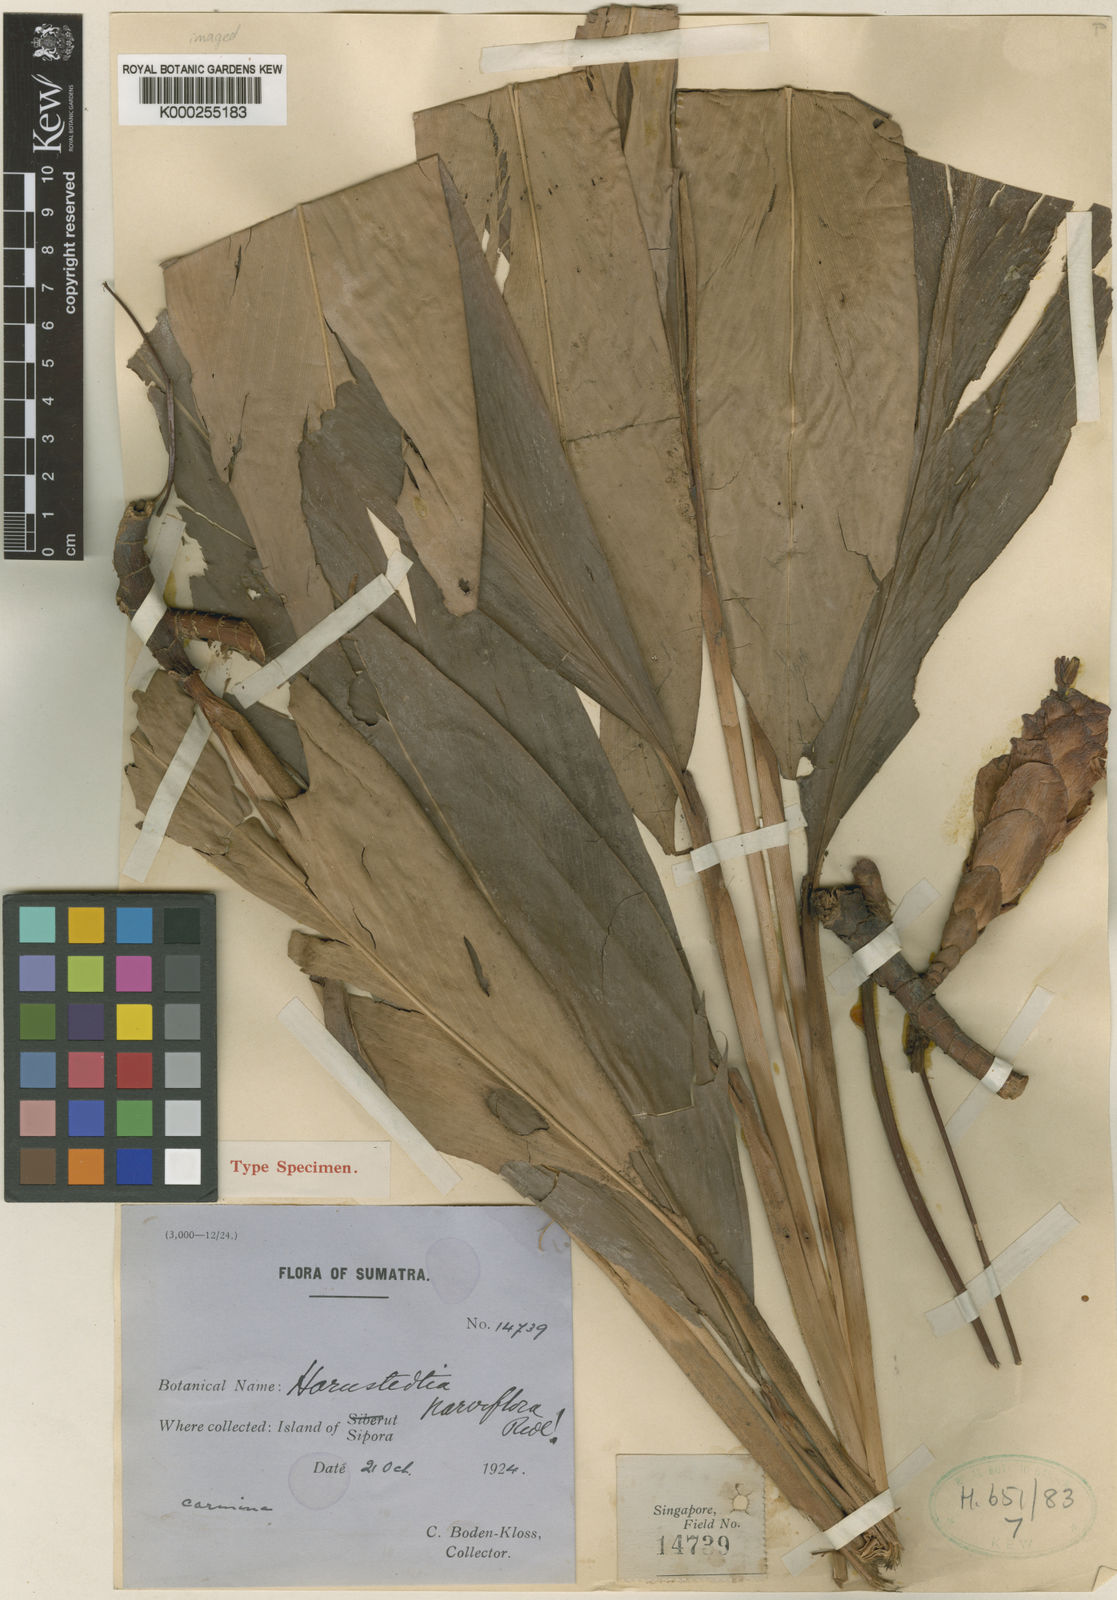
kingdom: Plantae
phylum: Tracheophyta
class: Liliopsida
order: Zingiberales
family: Zingiberaceae
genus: Hornstedtia
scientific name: Hornstedtia parviflora
